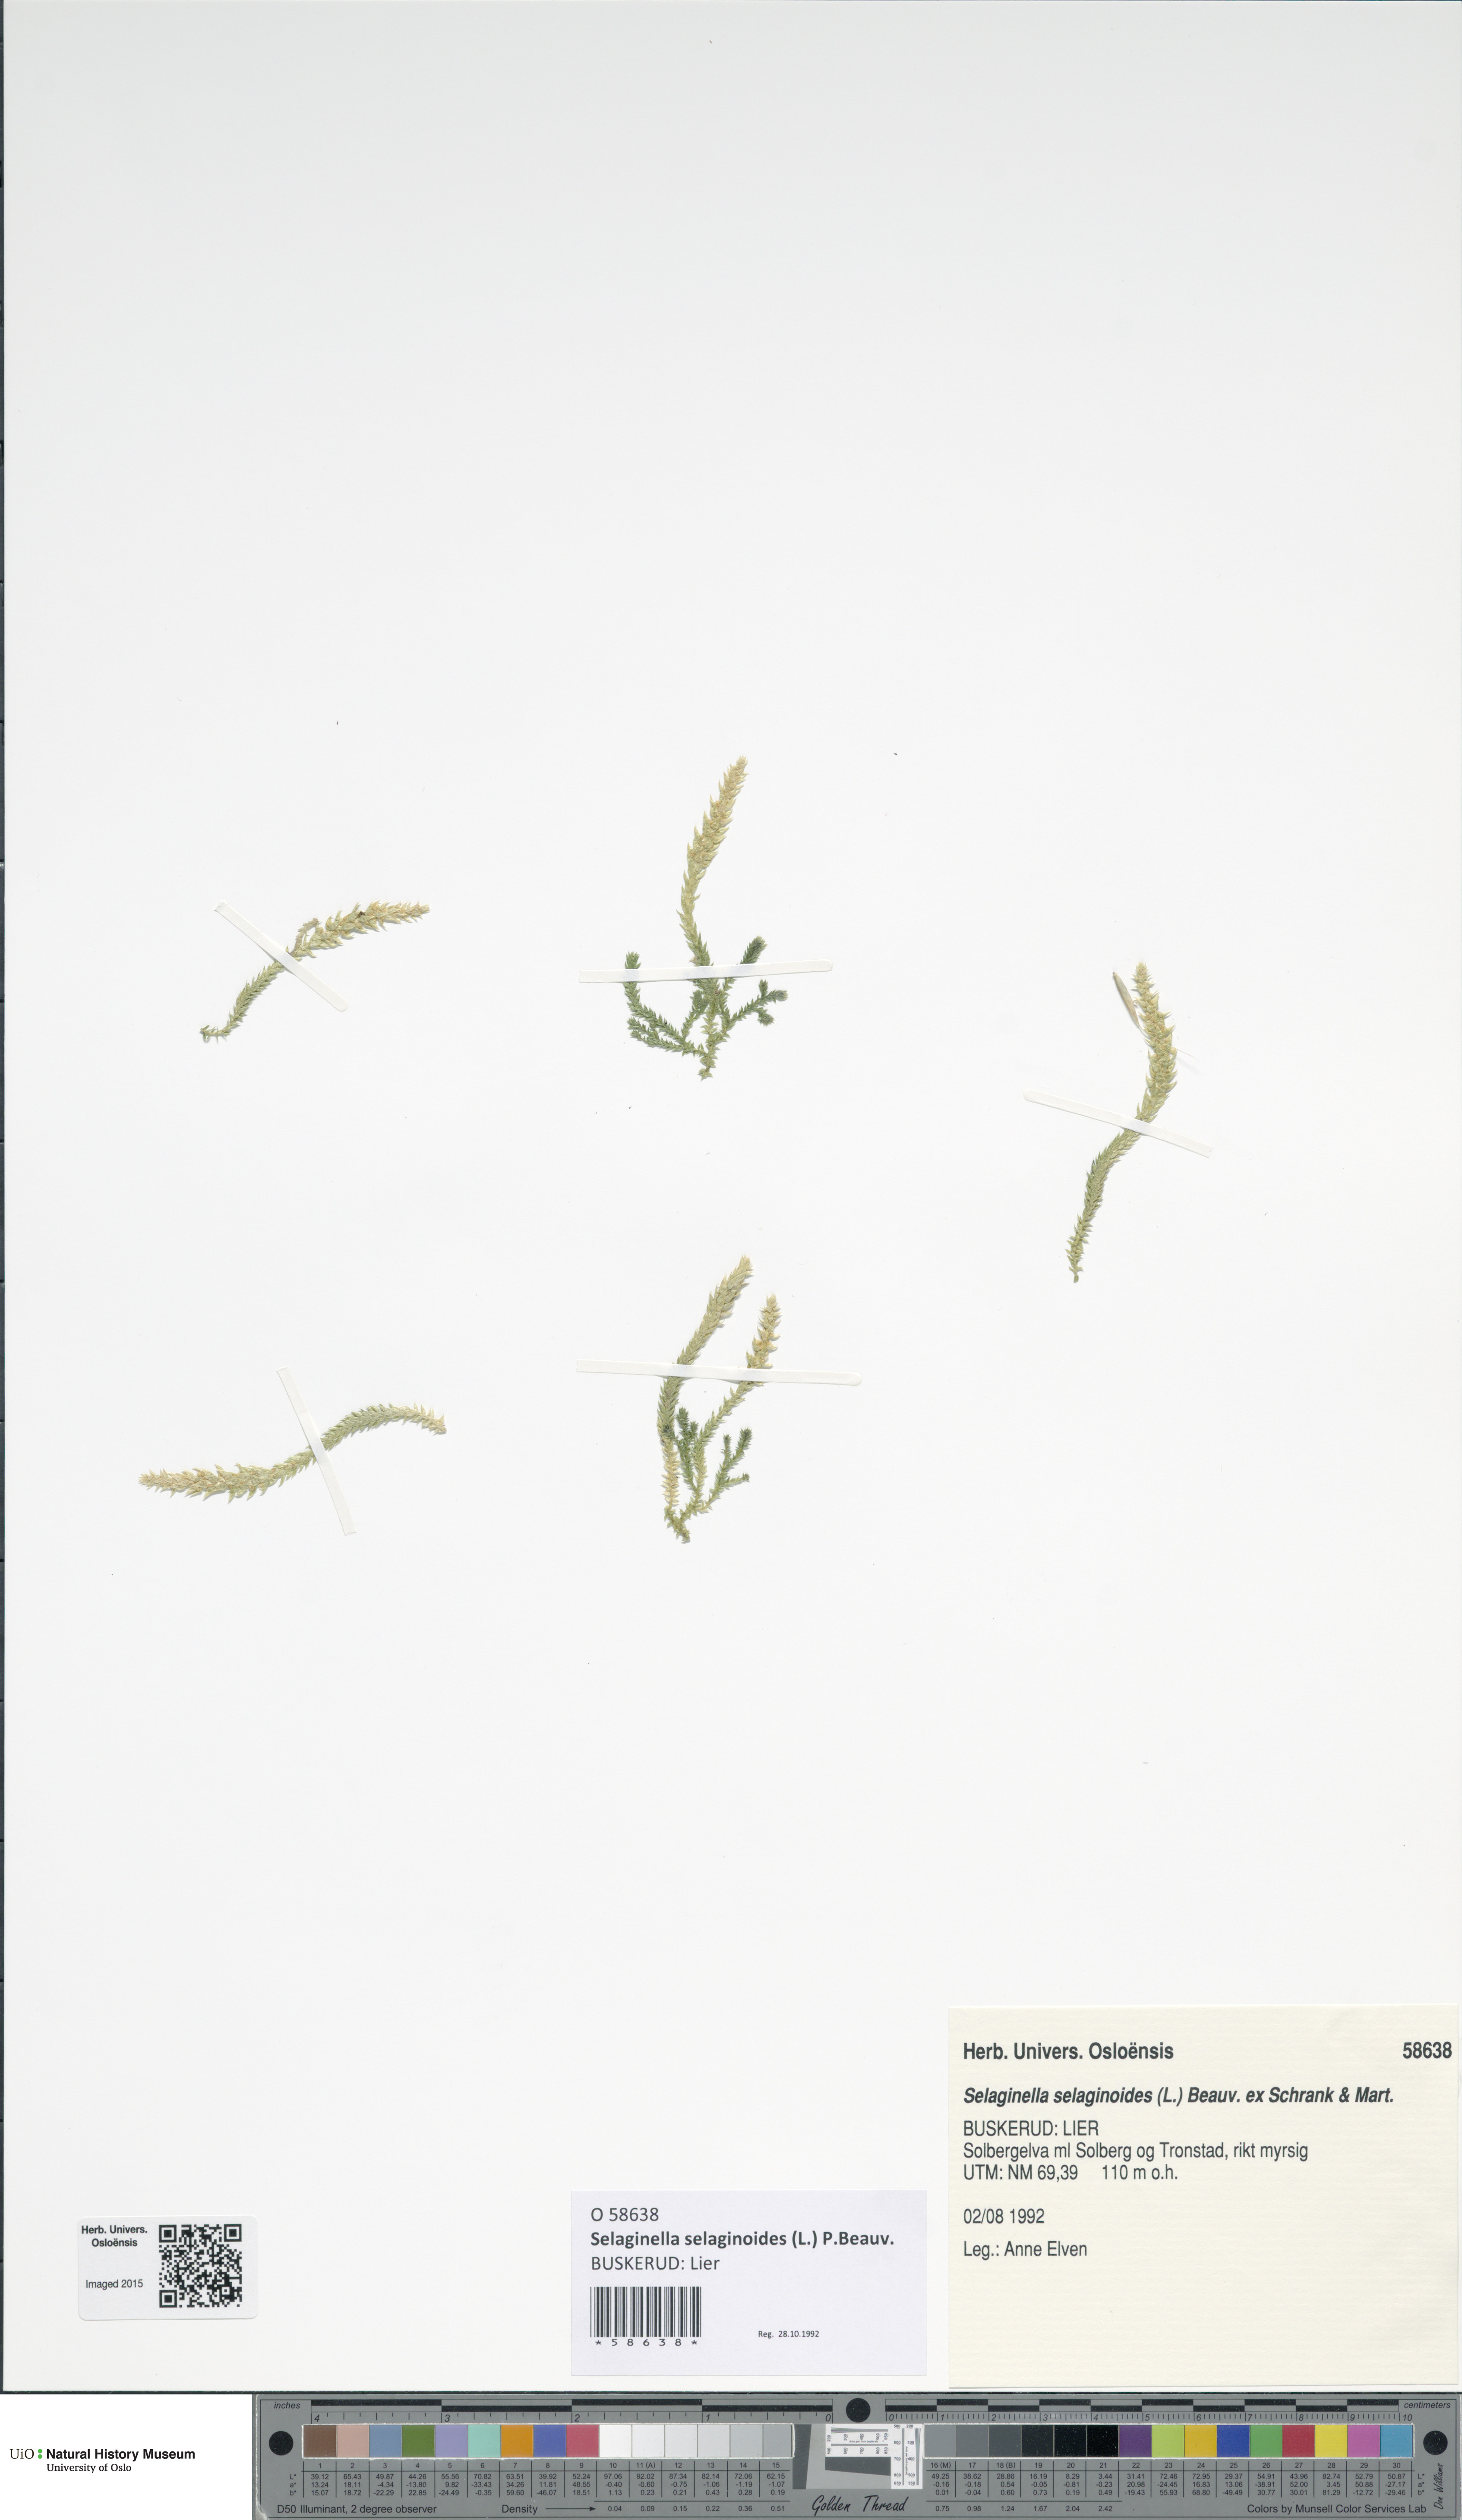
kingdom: Plantae
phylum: Tracheophyta
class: Lycopodiopsida
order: Selaginellales
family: Selaginellaceae
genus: Selaginella
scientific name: Selaginella selaginoides
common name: Prickly mountain-moss
